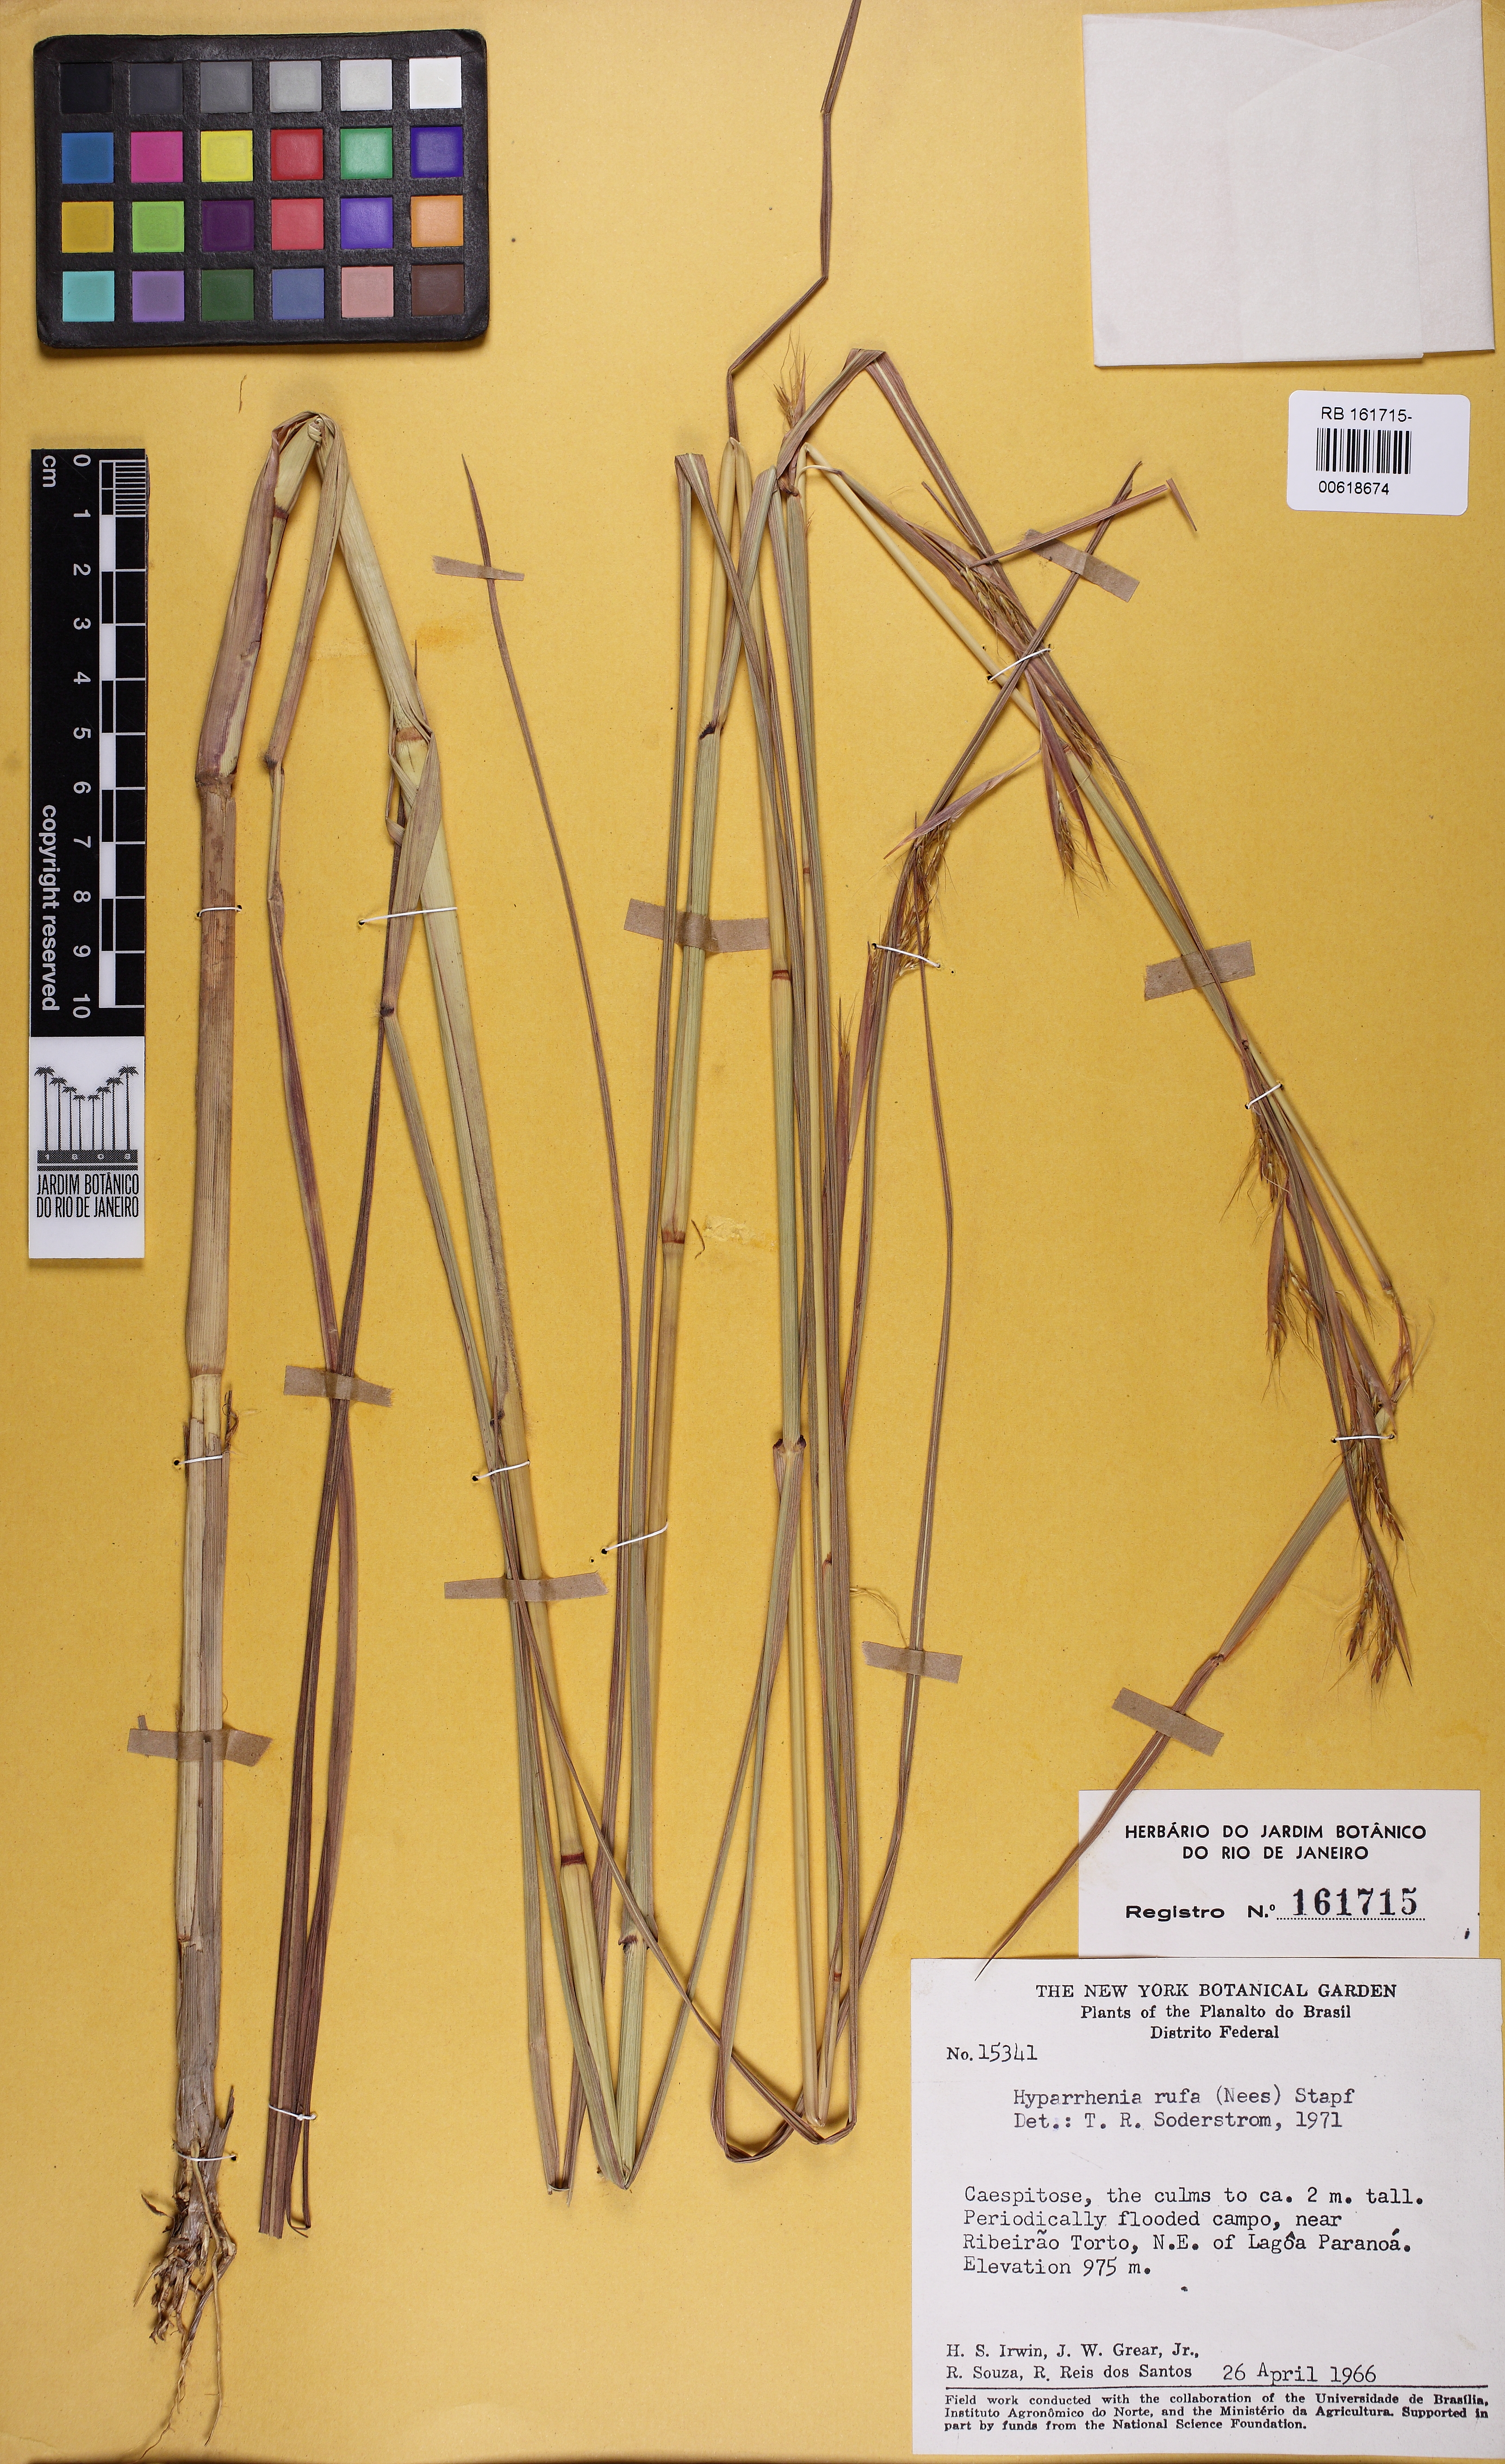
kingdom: Plantae
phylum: Tracheophyta
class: Liliopsida
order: Poales
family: Poaceae
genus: Hyparrhenia
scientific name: Hyparrhenia rufa
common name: Jaraguagrass
